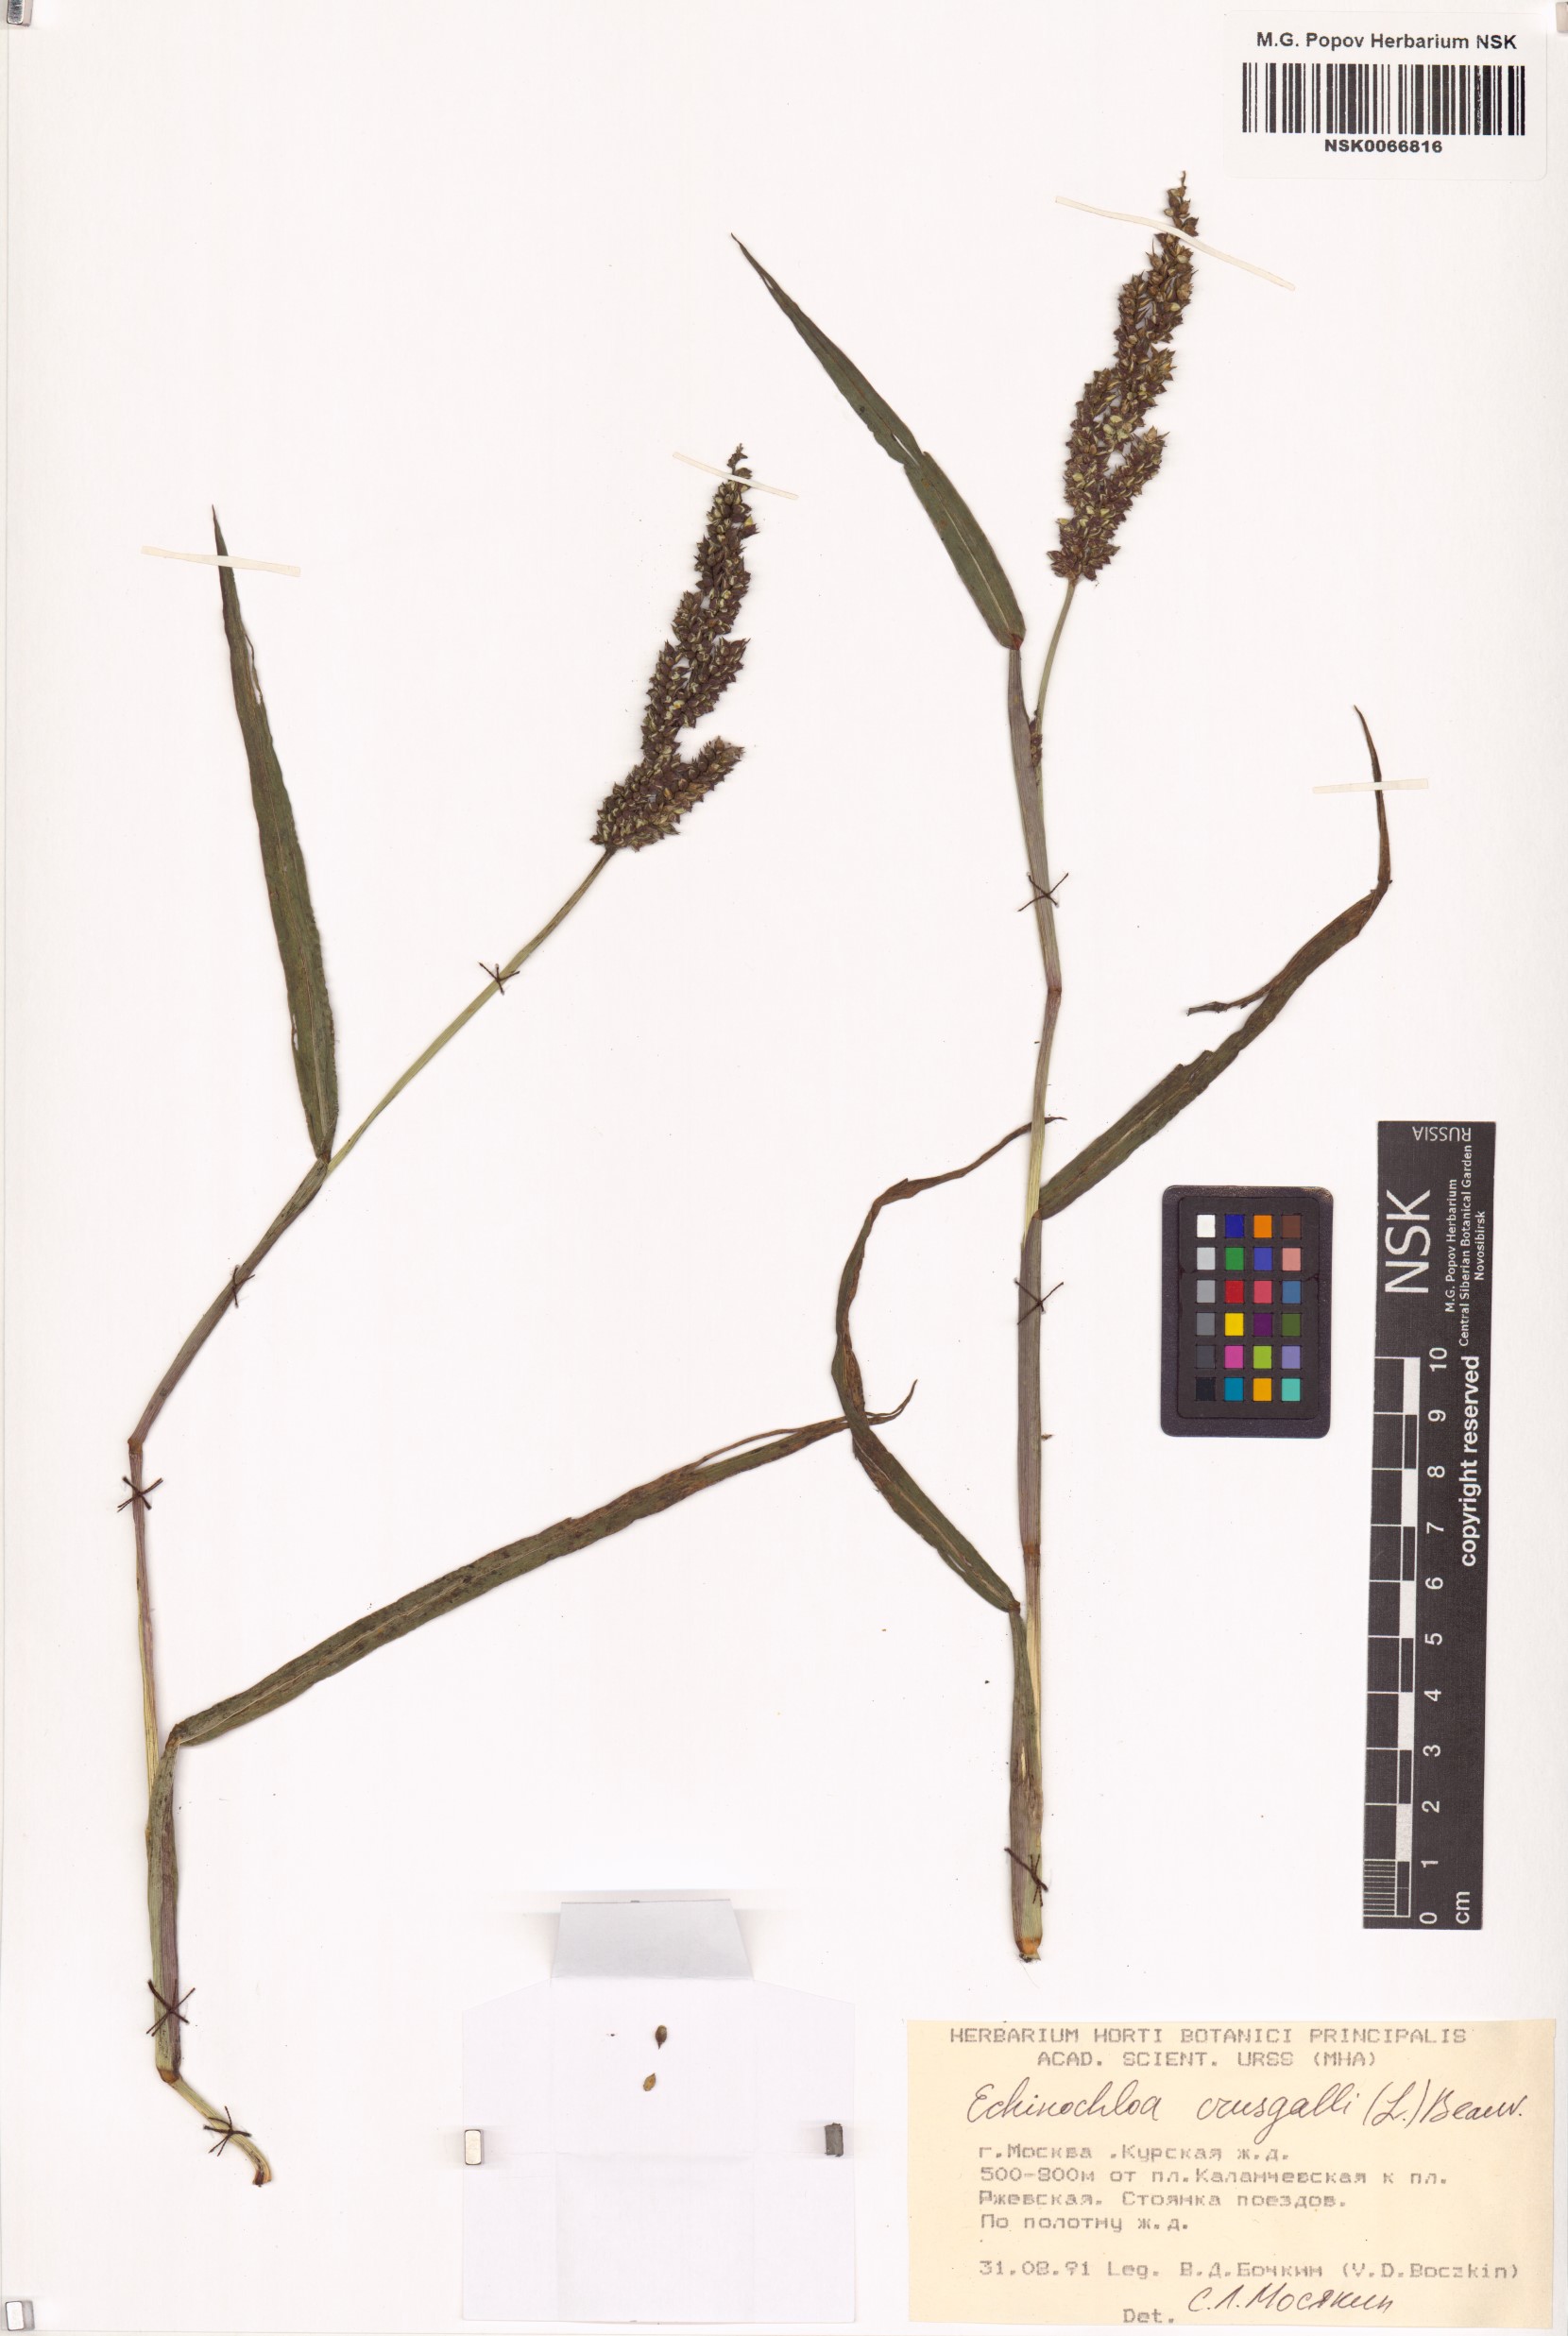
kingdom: Plantae
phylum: Tracheophyta
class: Liliopsida
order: Poales
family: Poaceae
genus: Echinochloa
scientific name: Echinochloa crus-galli
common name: Cockspur
